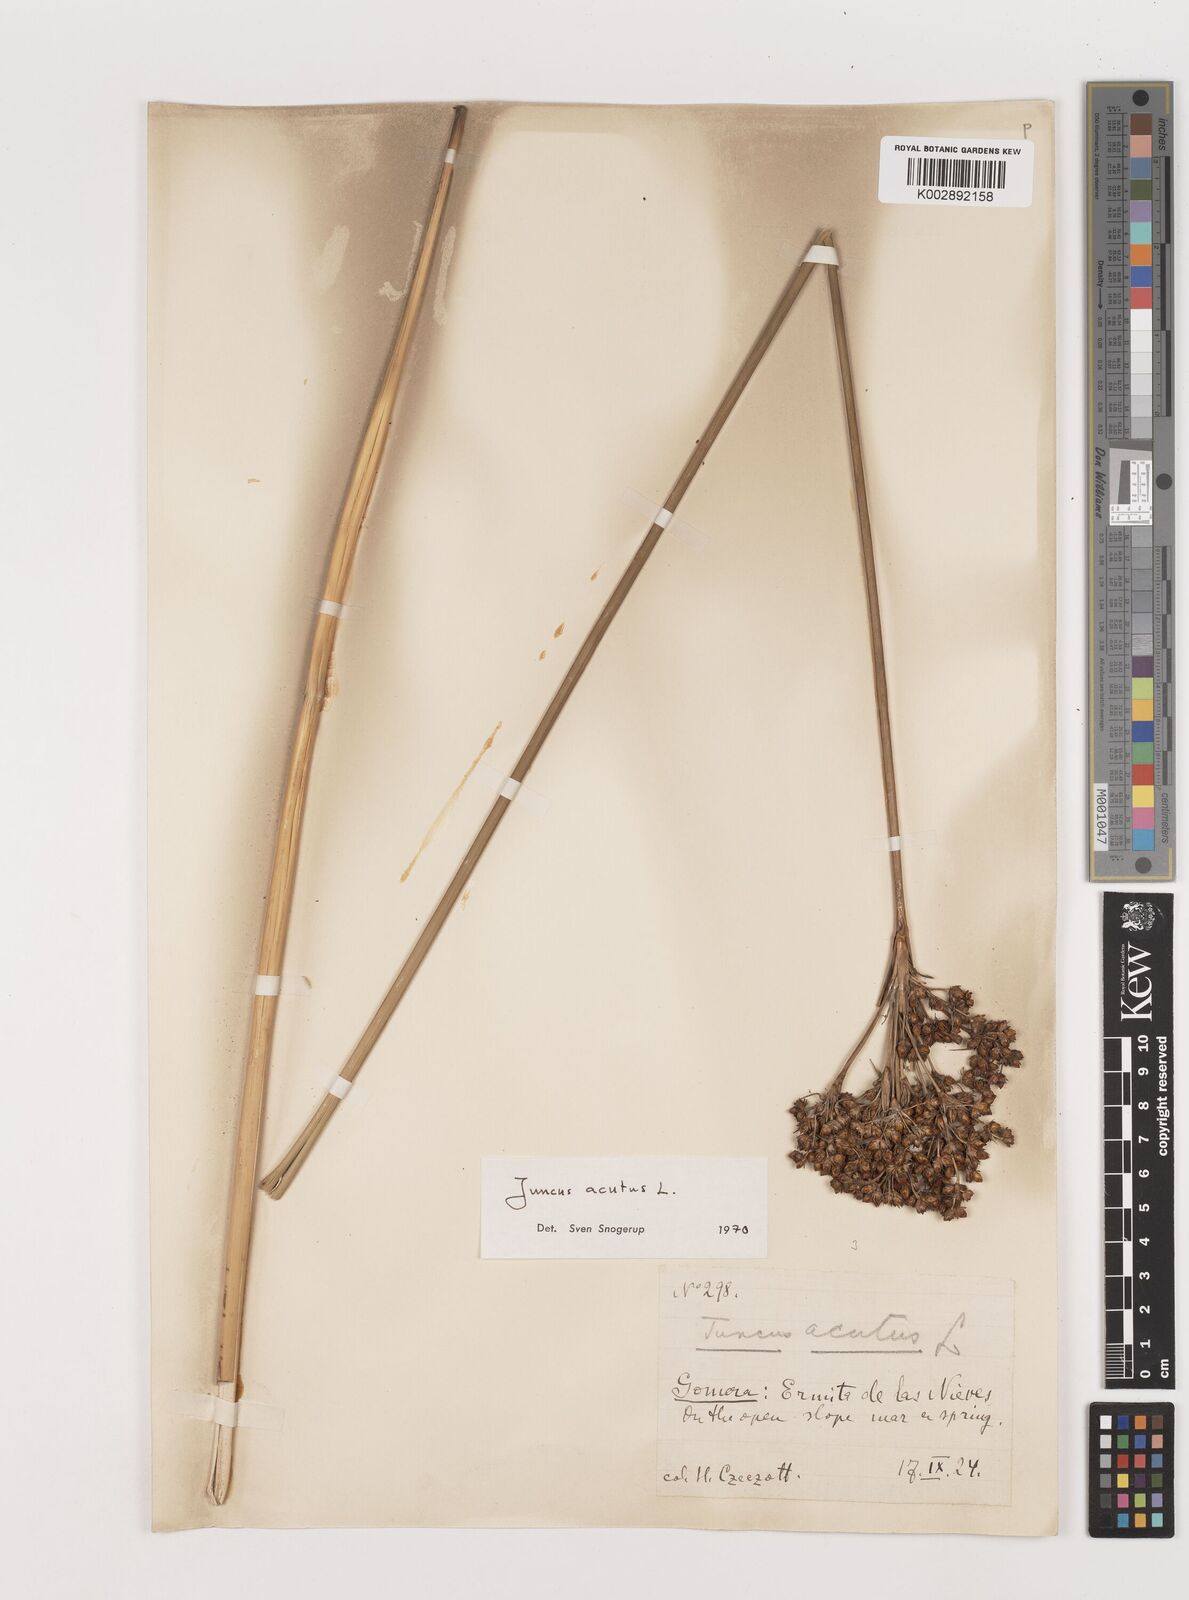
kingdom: Plantae
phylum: Tracheophyta
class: Liliopsida
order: Poales
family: Juncaceae
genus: Juncus
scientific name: Juncus acutus
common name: Sharp rush
